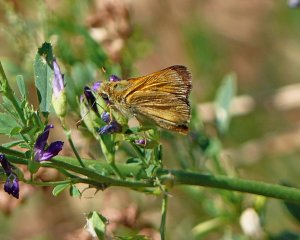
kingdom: Animalia
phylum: Arthropoda
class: Insecta
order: Lepidoptera
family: Hesperiidae
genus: Ochlodes
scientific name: Ochlodes sylvanoides
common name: Woodland Skipper
